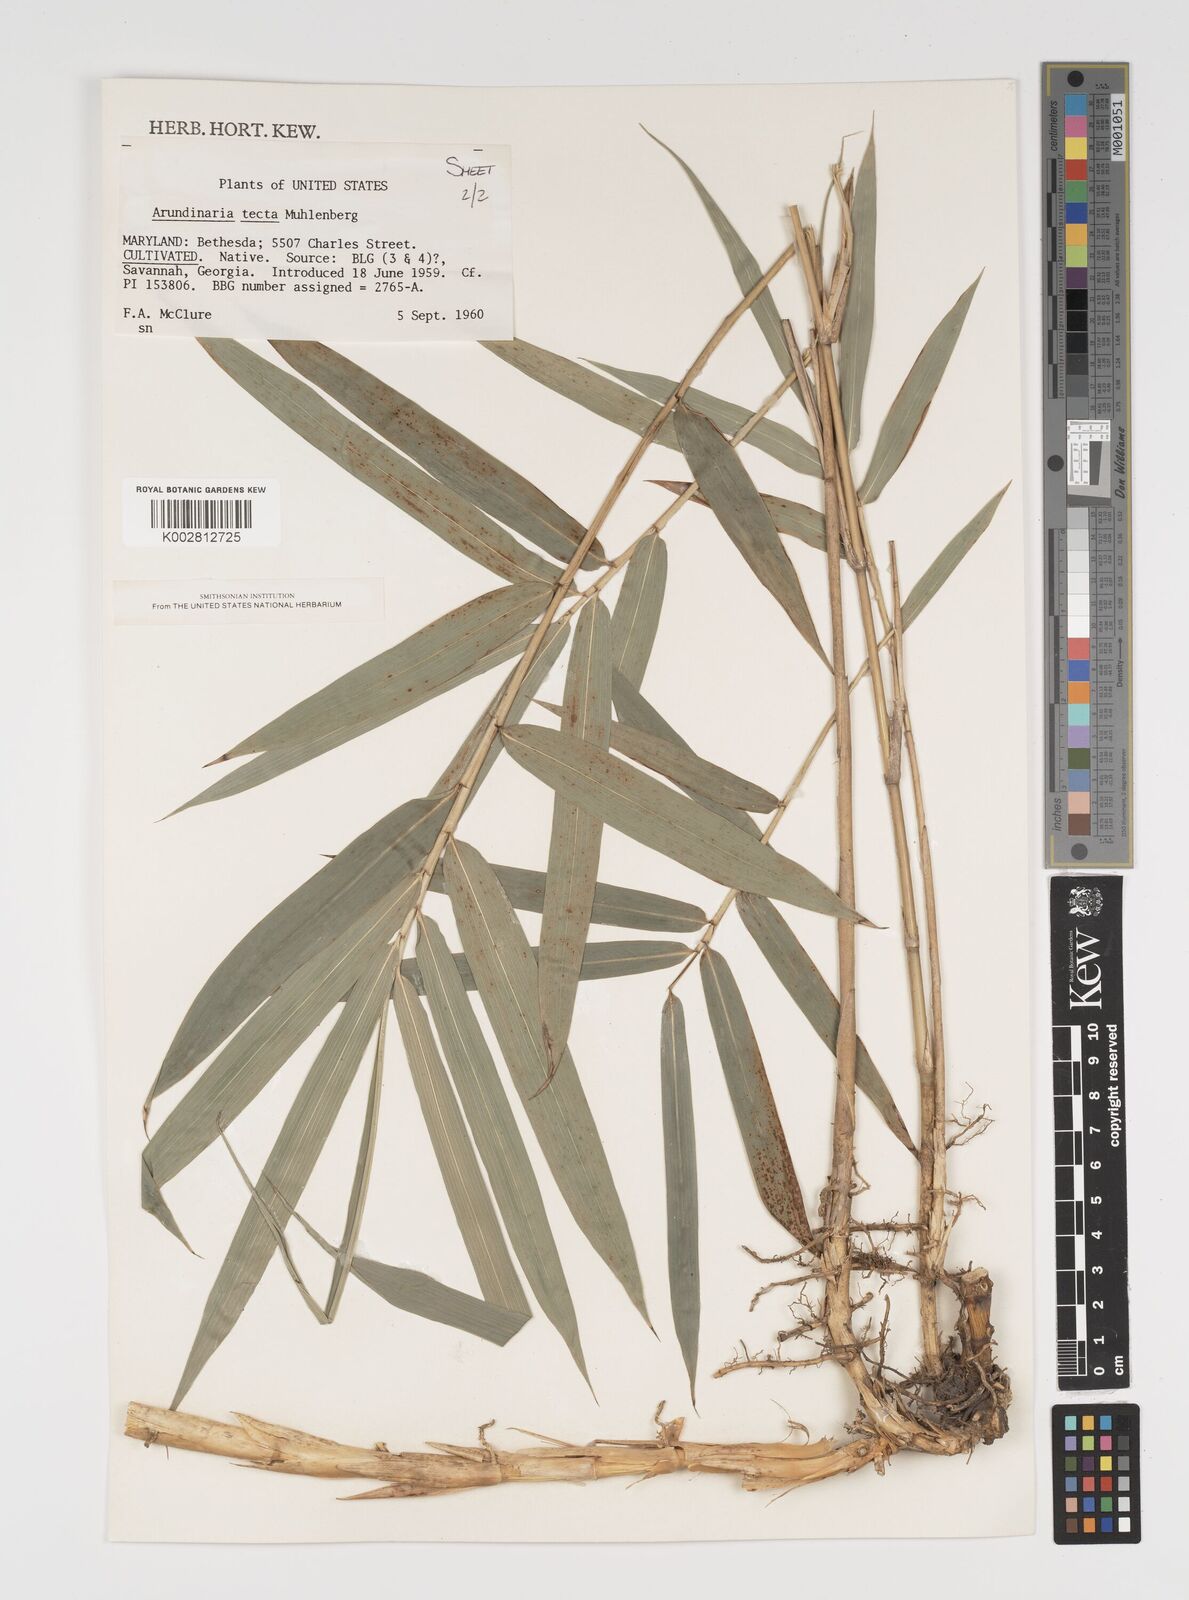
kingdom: Plantae
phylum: Tracheophyta
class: Liliopsida
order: Poales
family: Poaceae
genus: Arundinaria
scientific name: Arundinaria tecta
